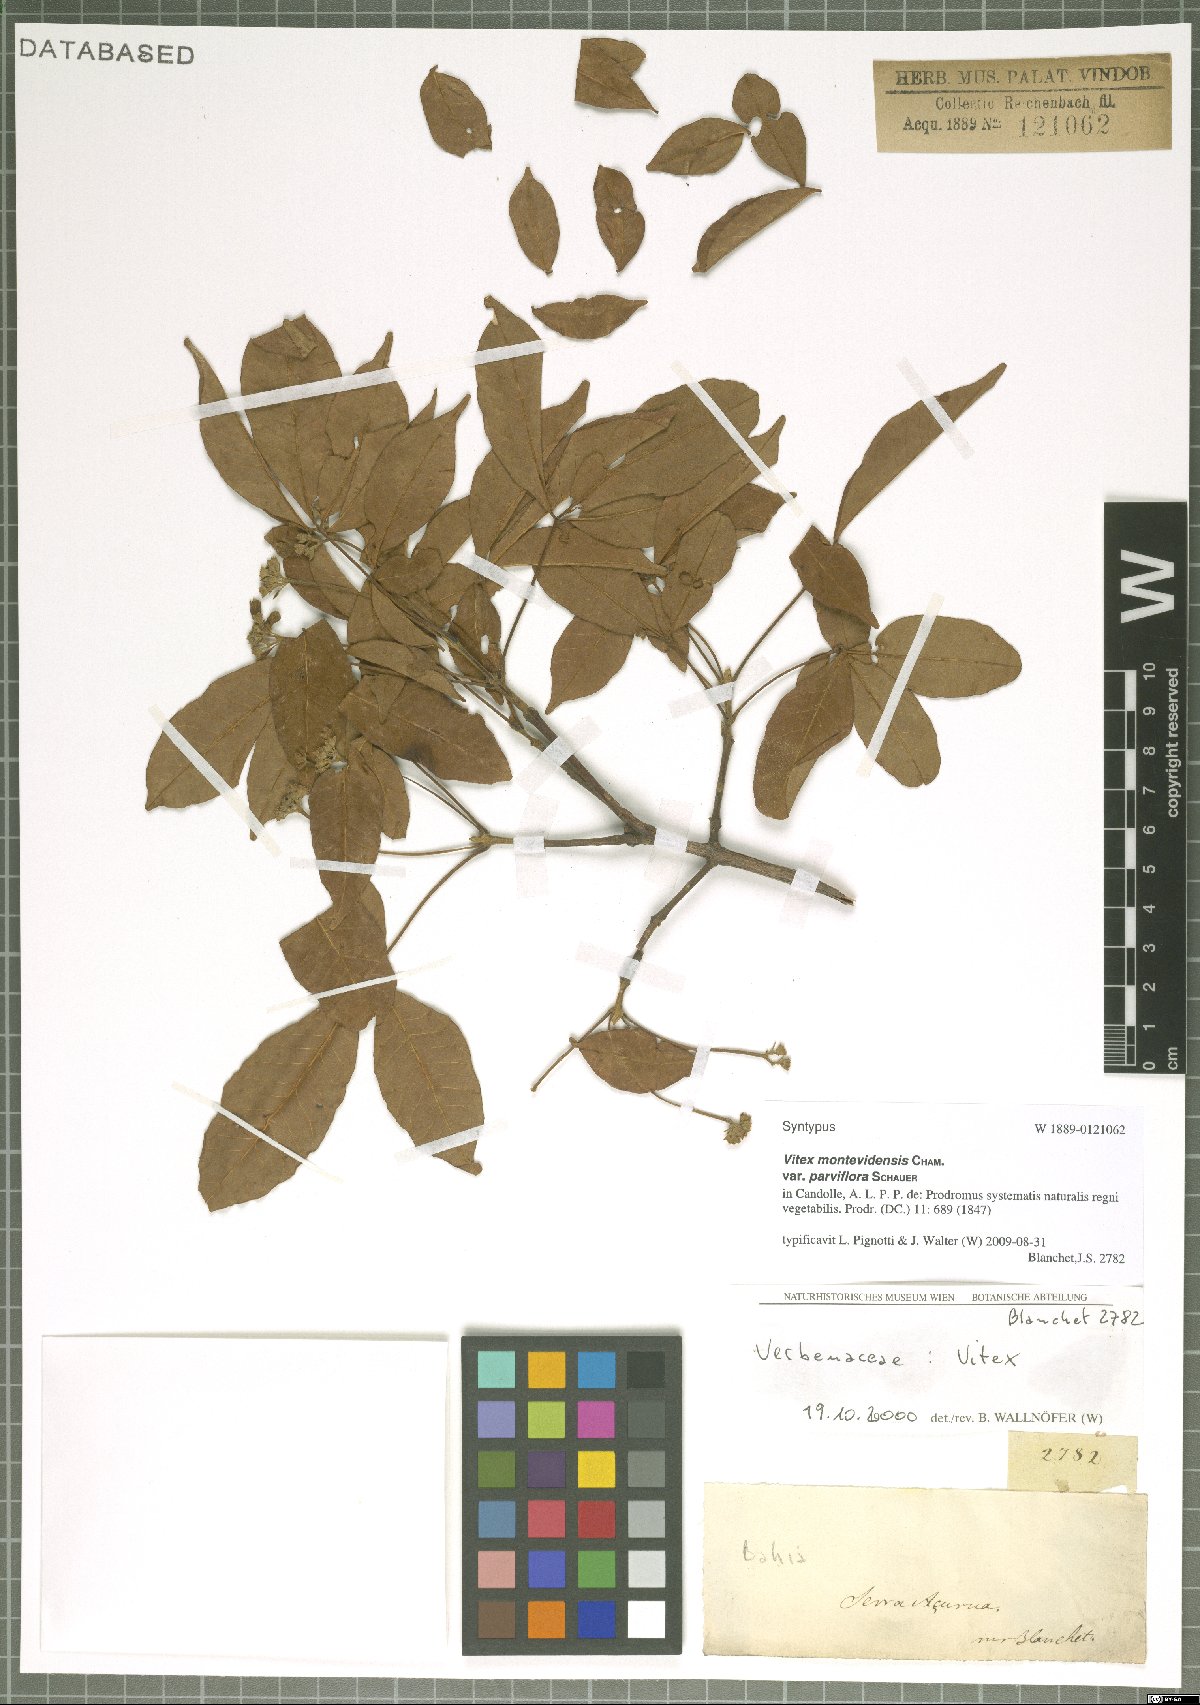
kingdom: Plantae
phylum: Tracheophyta
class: Magnoliopsida
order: Lamiales
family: Lamiaceae
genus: Vitex
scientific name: Vitex schaueriana
